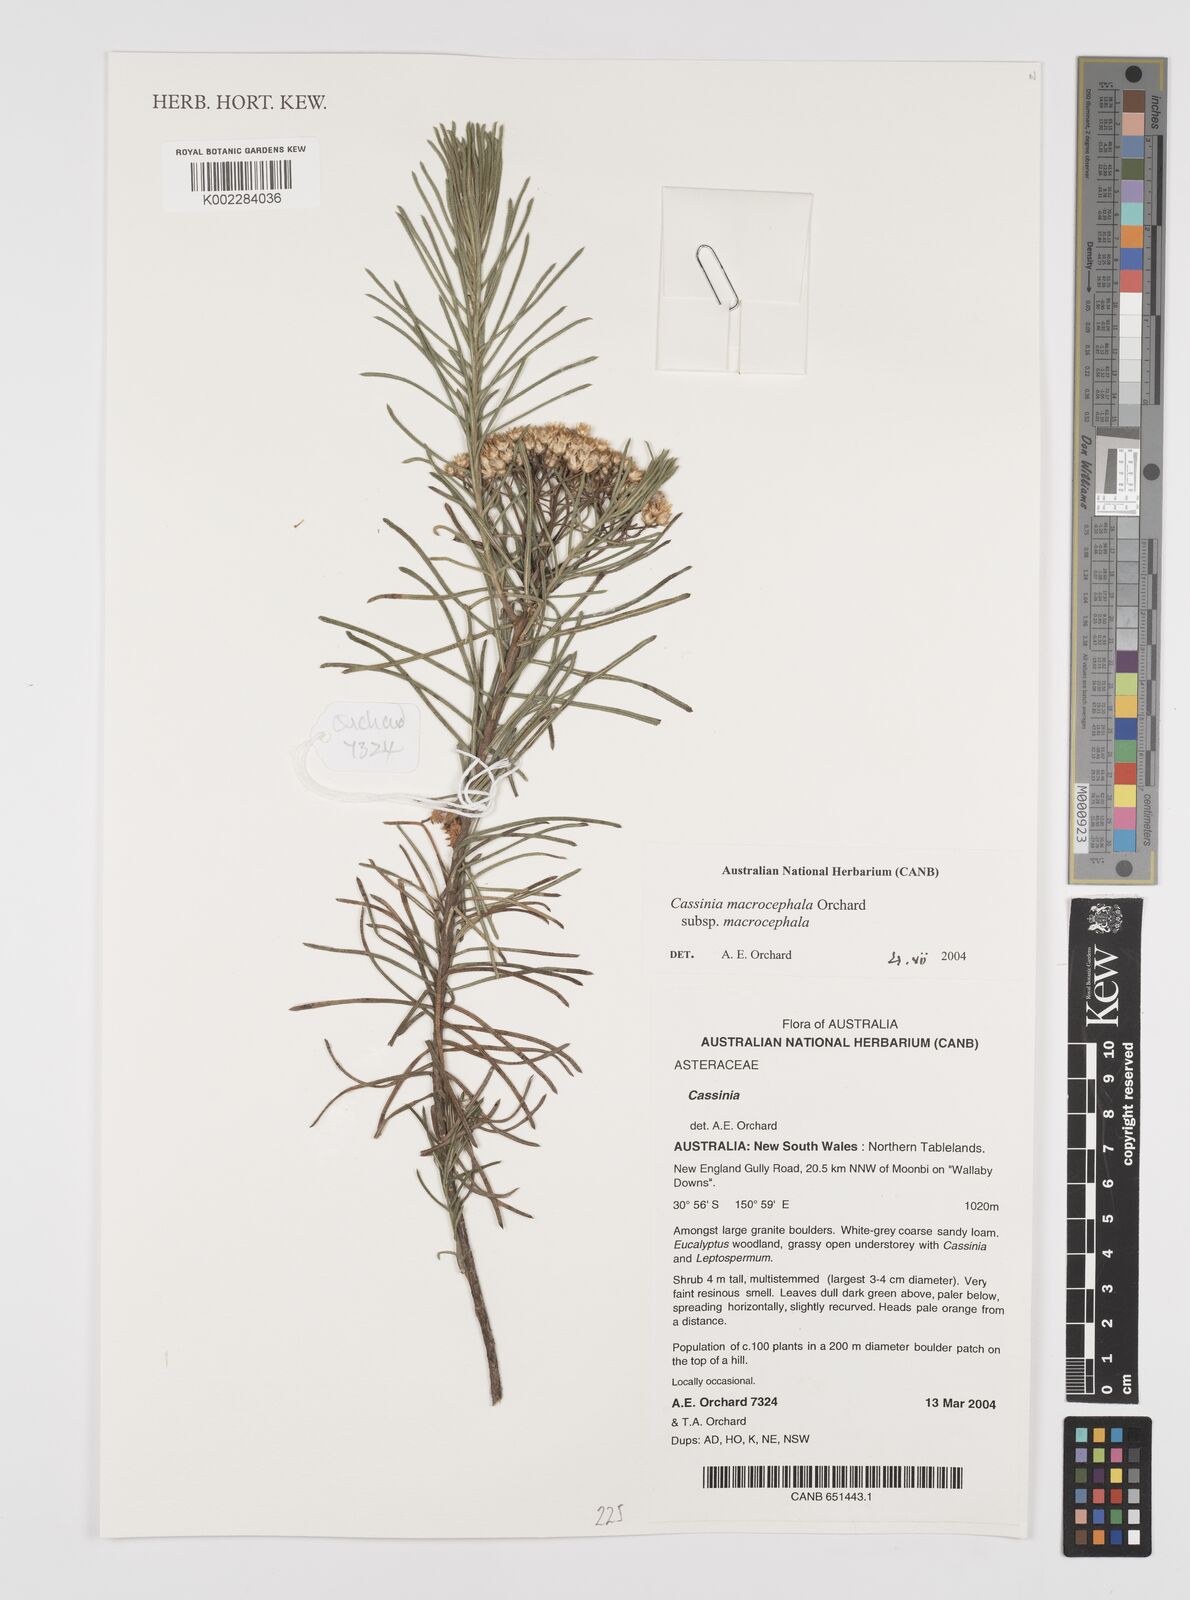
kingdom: Plantae
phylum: Tracheophyta
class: Magnoliopsida
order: Asterales
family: Asteraceae
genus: Cassinia
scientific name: Cassinia macrocephala
